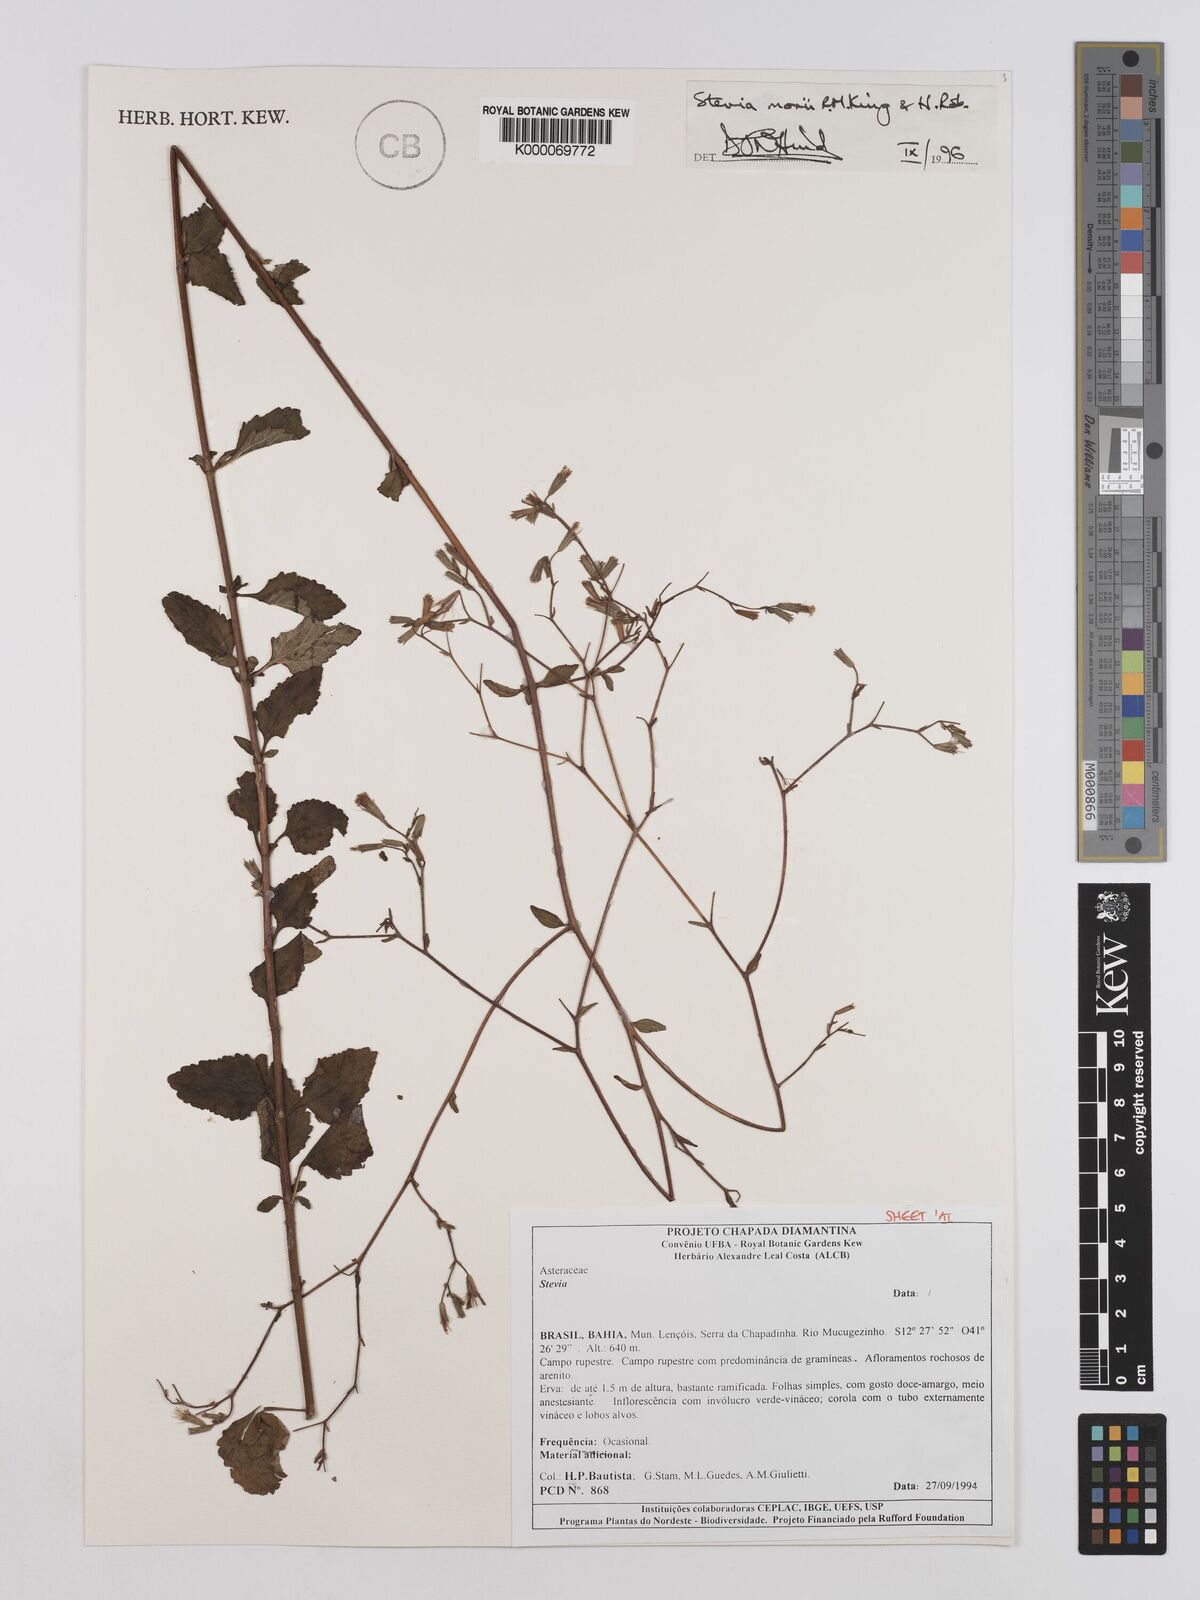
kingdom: Plantae
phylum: Tracheophyta
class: Magnoliopsida
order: Asterales
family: Asteraceae
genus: Stevia
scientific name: Stevia morii
